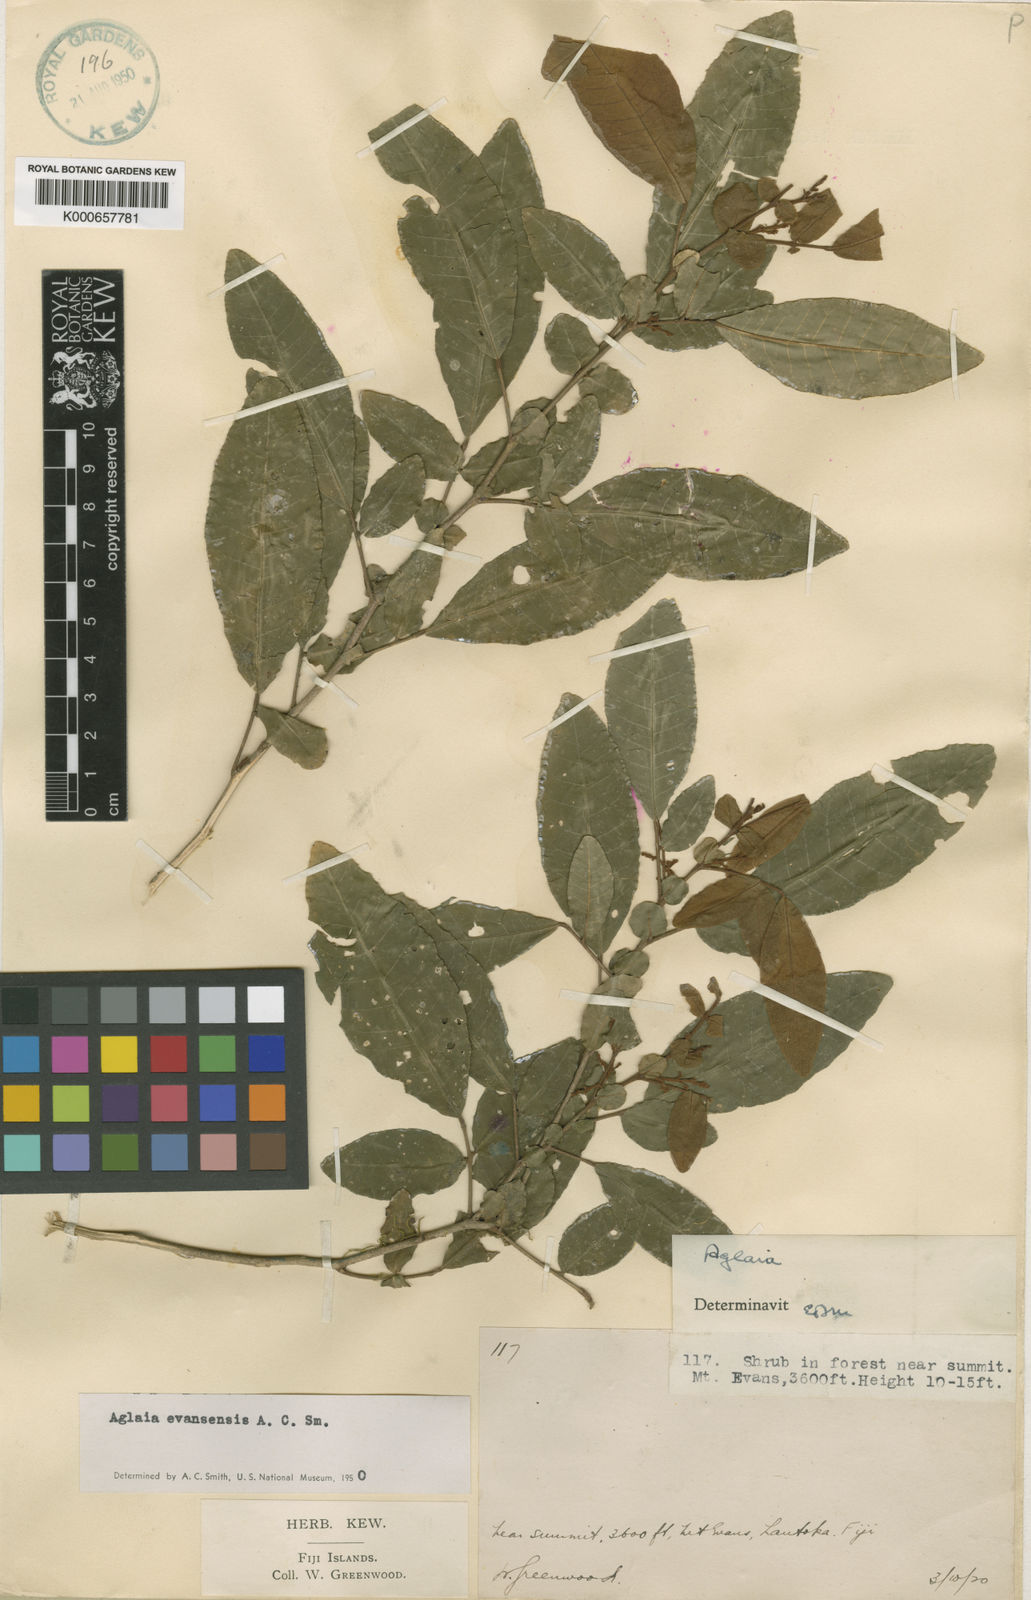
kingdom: Plantae
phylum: Tracheophyta
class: Magnoliopsida
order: Sapindales
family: Meliaceae
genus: Aglaia
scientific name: Aglaia evansensis
